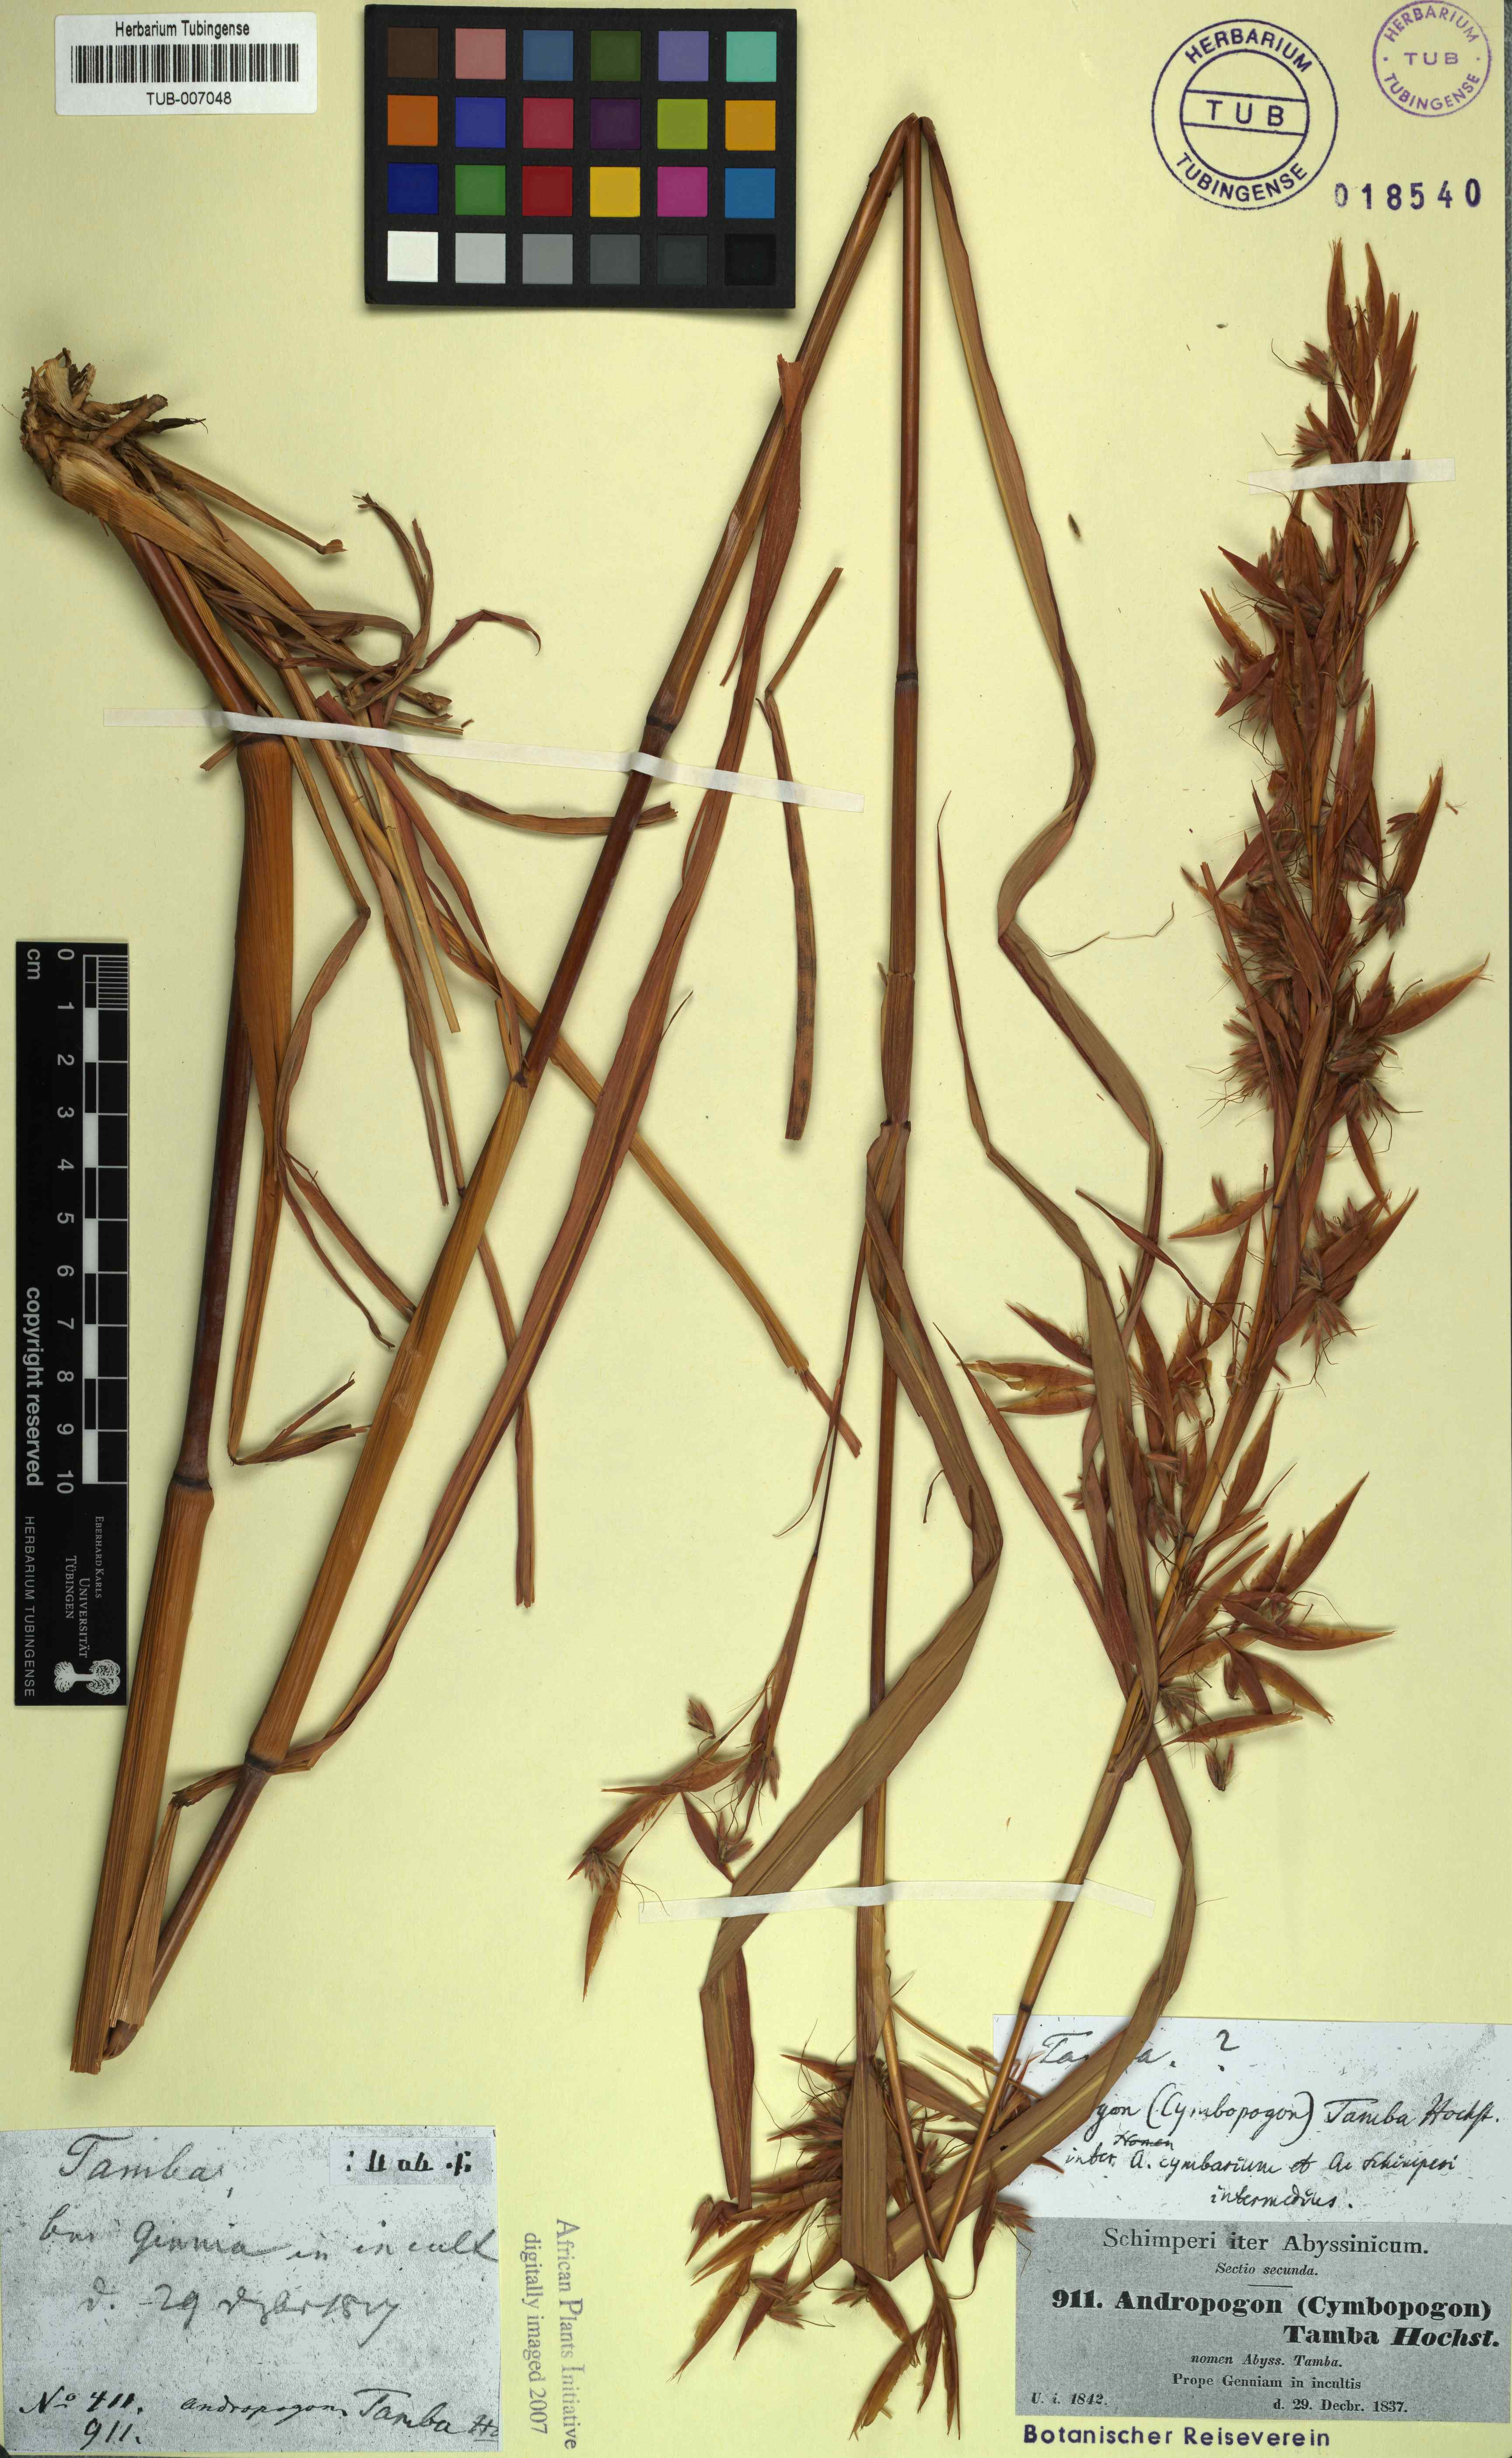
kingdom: Plantae
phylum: Tracheophyta
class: Liliopsida
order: Poales
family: Poaceae
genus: Hyparrhenia
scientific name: Hyparrhenia cymbaria
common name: Boat thatching grass
